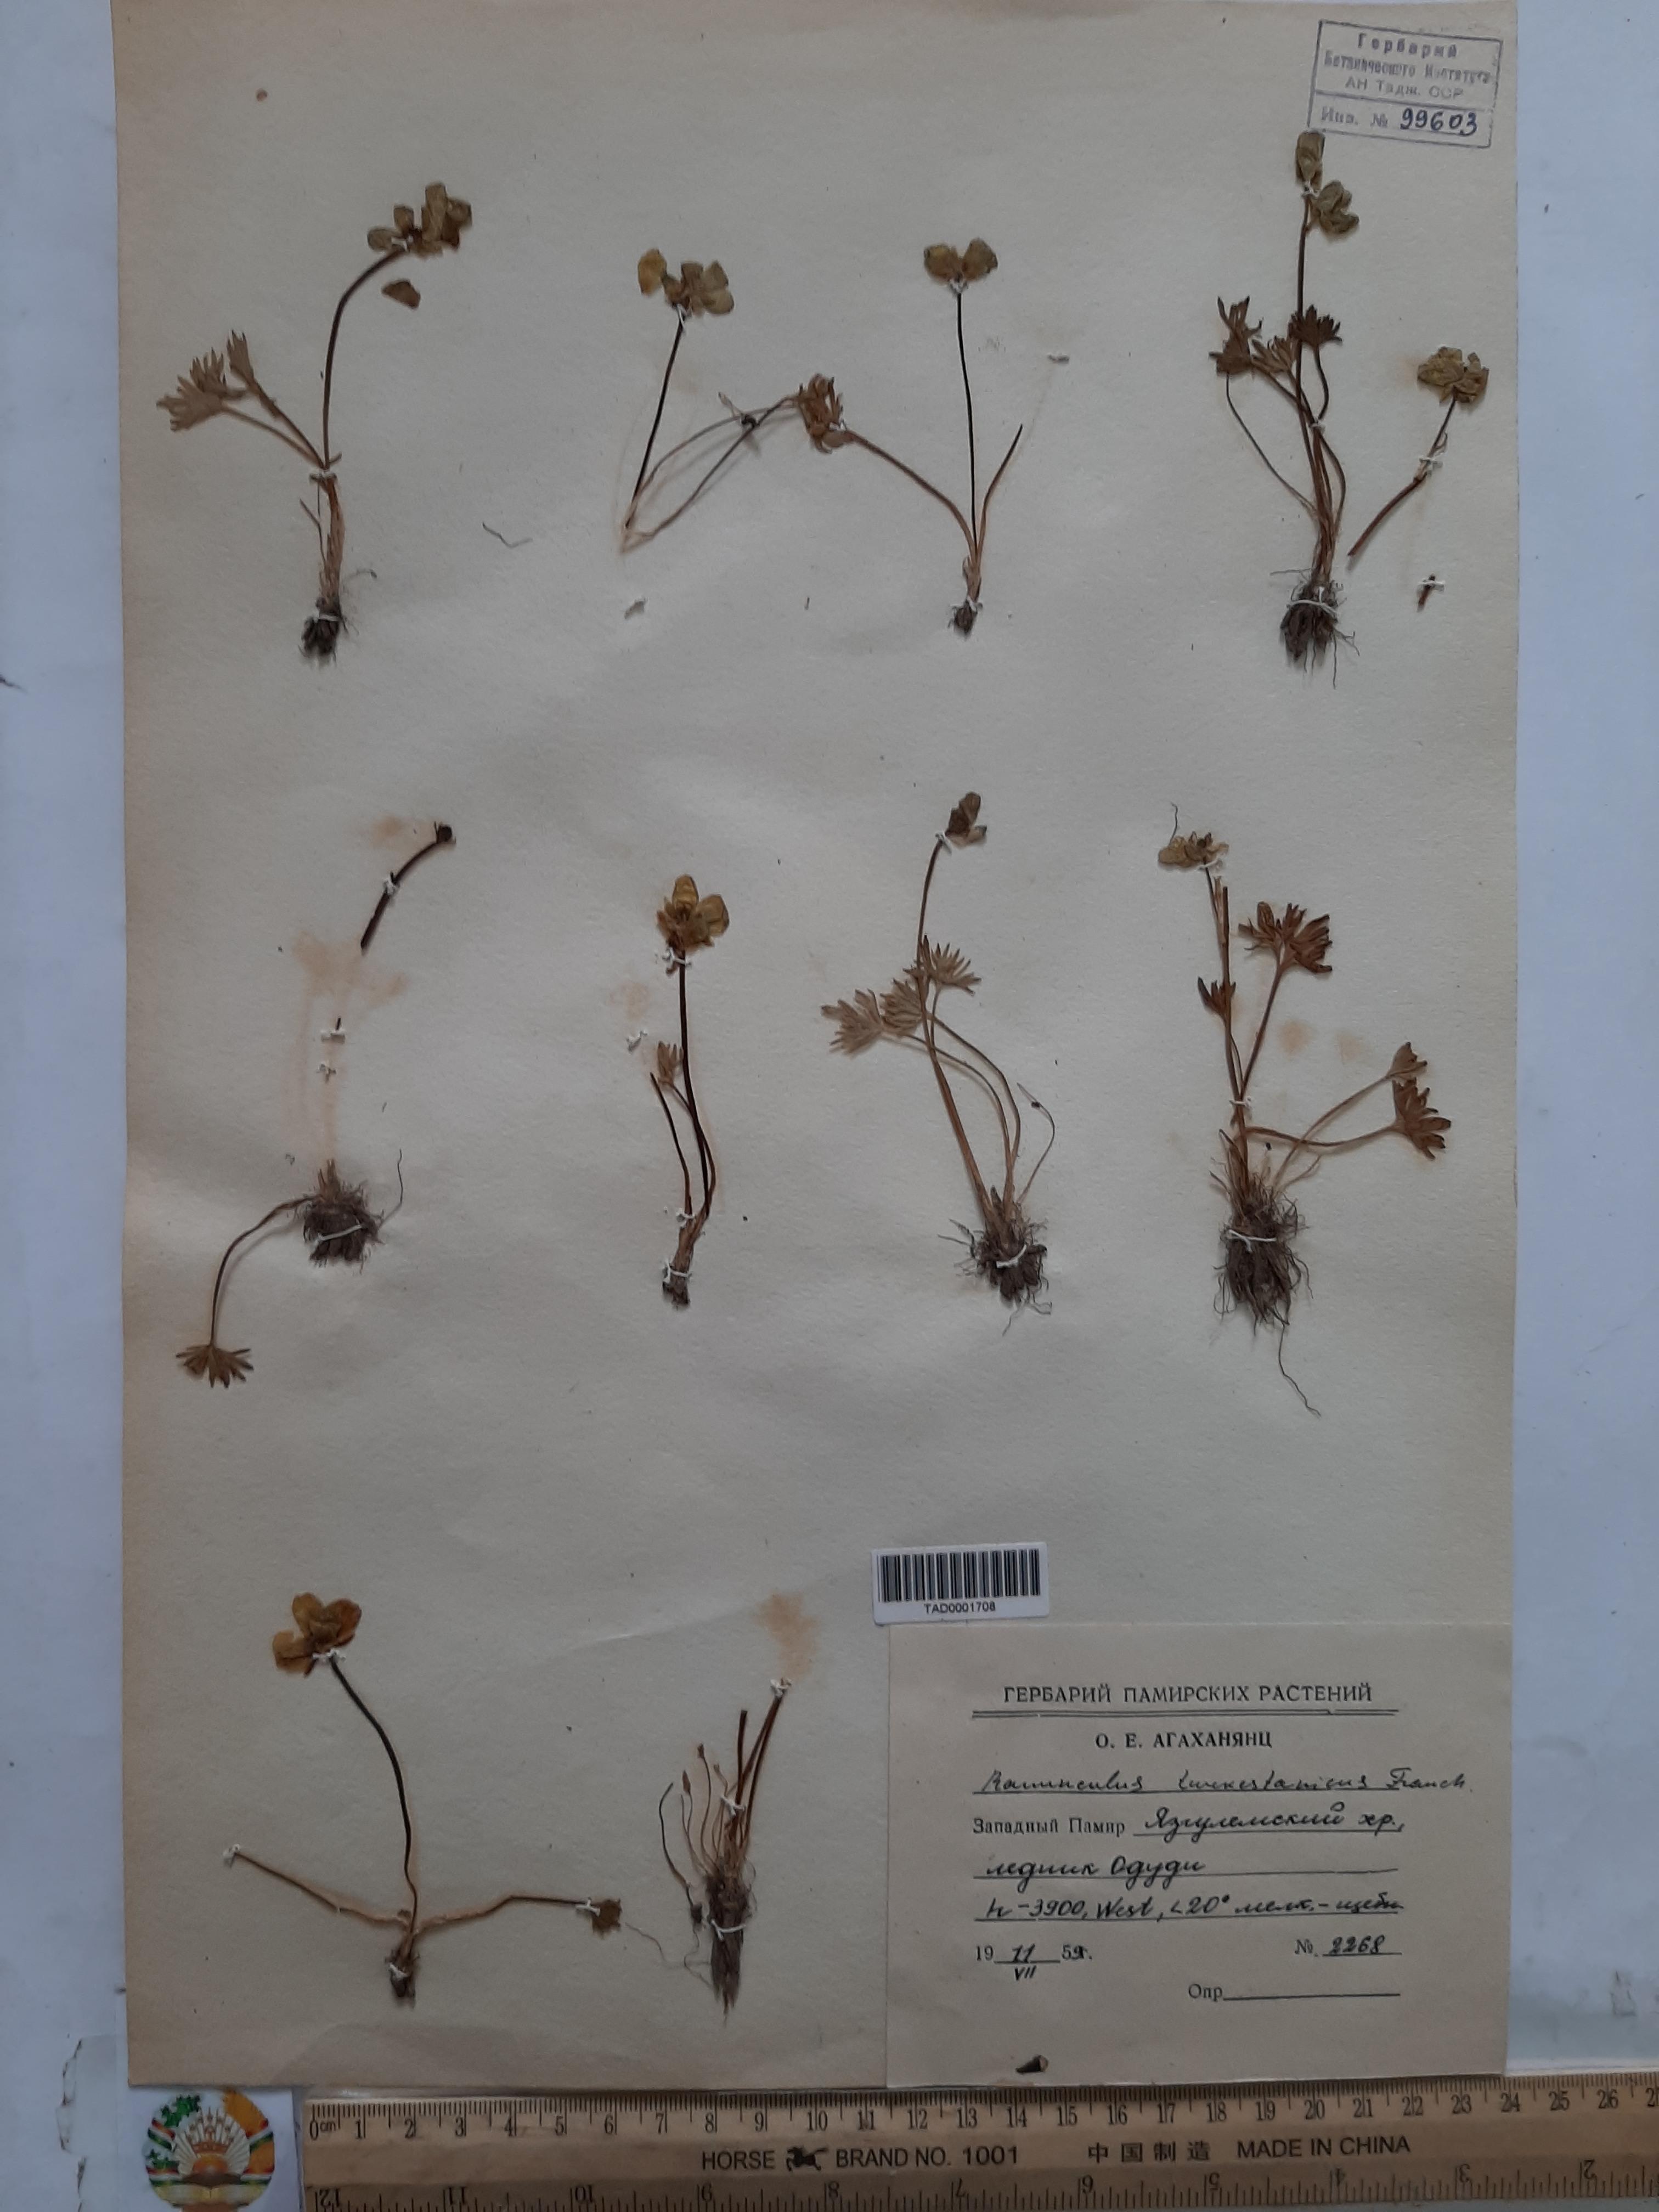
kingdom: Plantae
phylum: Tracheophyta
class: Liliopsida
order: Poales
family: Poaceae
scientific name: Poaceae
